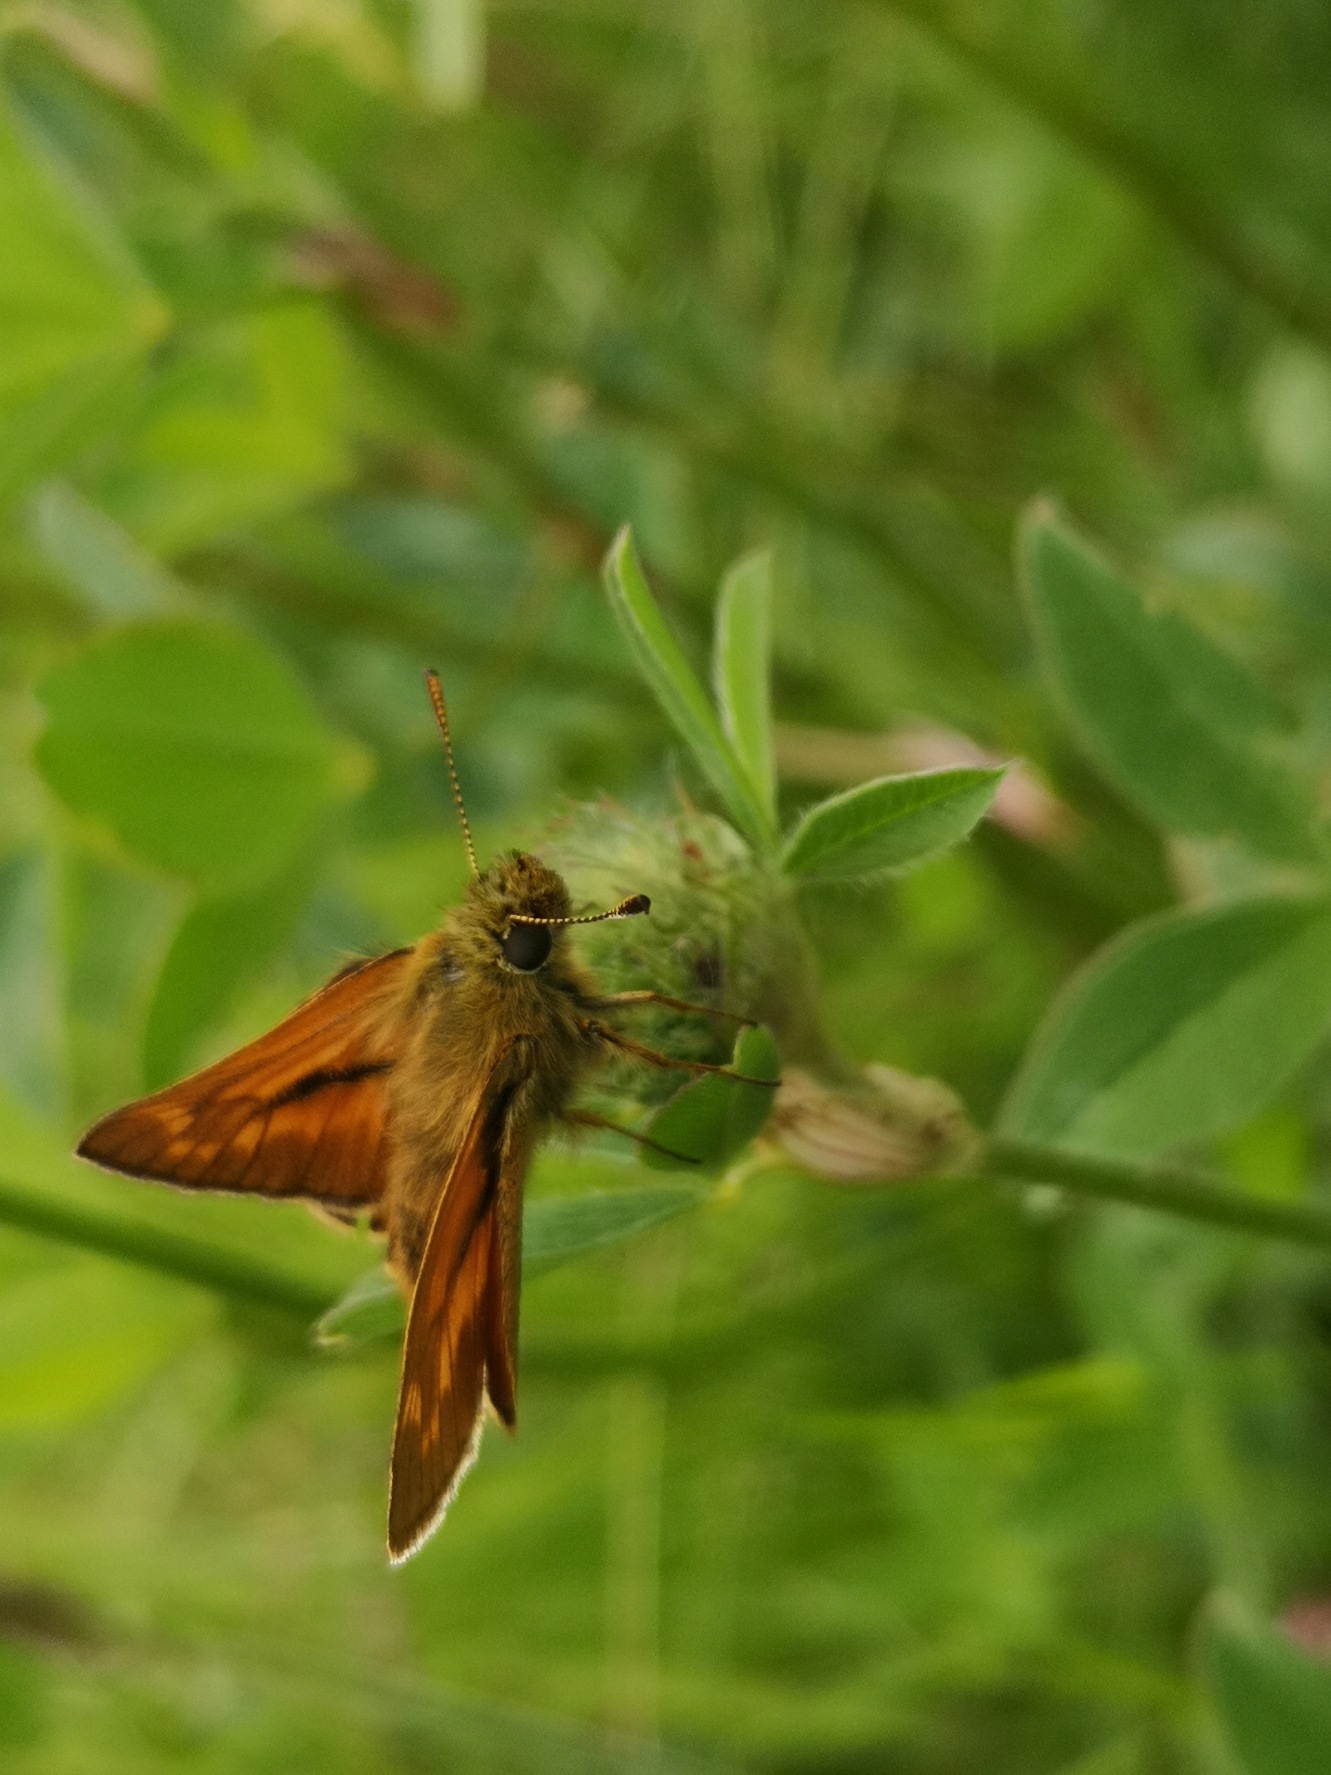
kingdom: Animalia
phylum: Arthropoda
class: Insecta
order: Lepidoptera
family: Hesperiidae
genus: Ochlodes
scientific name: Ochlodes venata
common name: Stor bredpande
